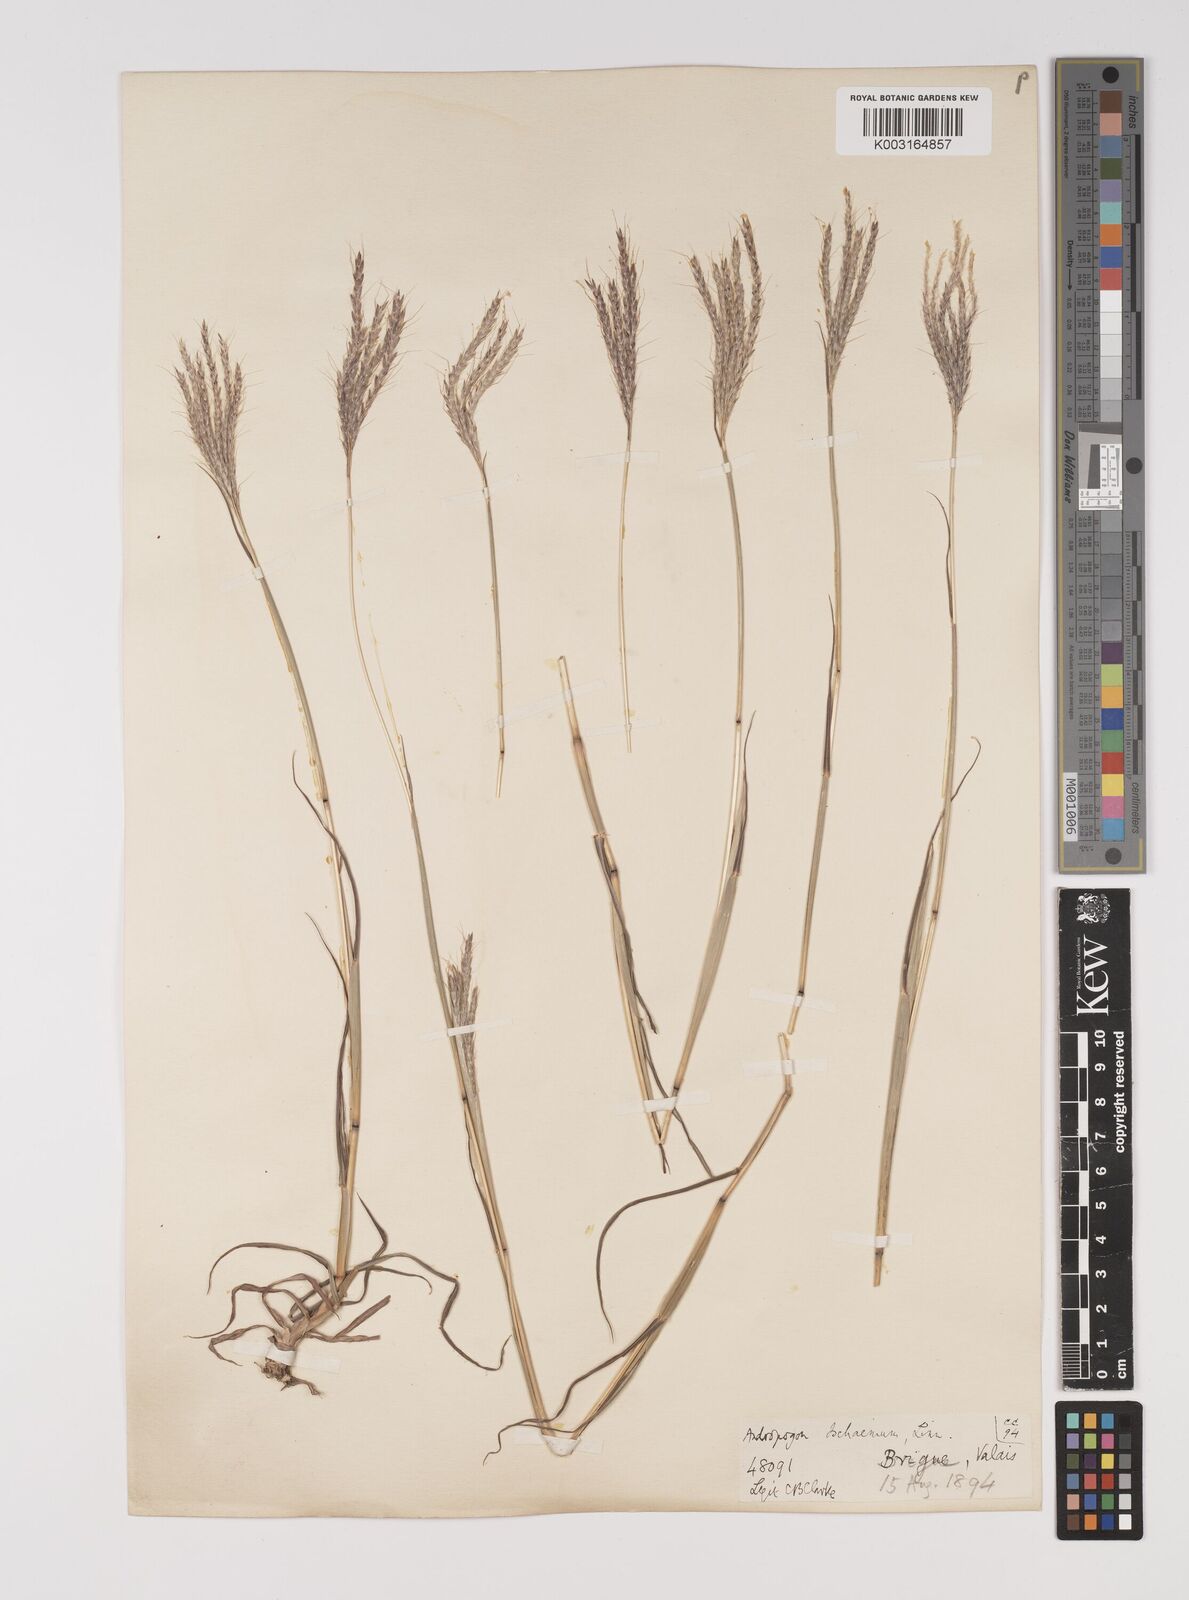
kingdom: Plantae
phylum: Tracheophyta
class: Liliopsida
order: Poales
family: Poaceae
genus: Bothriochloa
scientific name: Bothriochloa ischaemum
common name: Yellow bluestem
